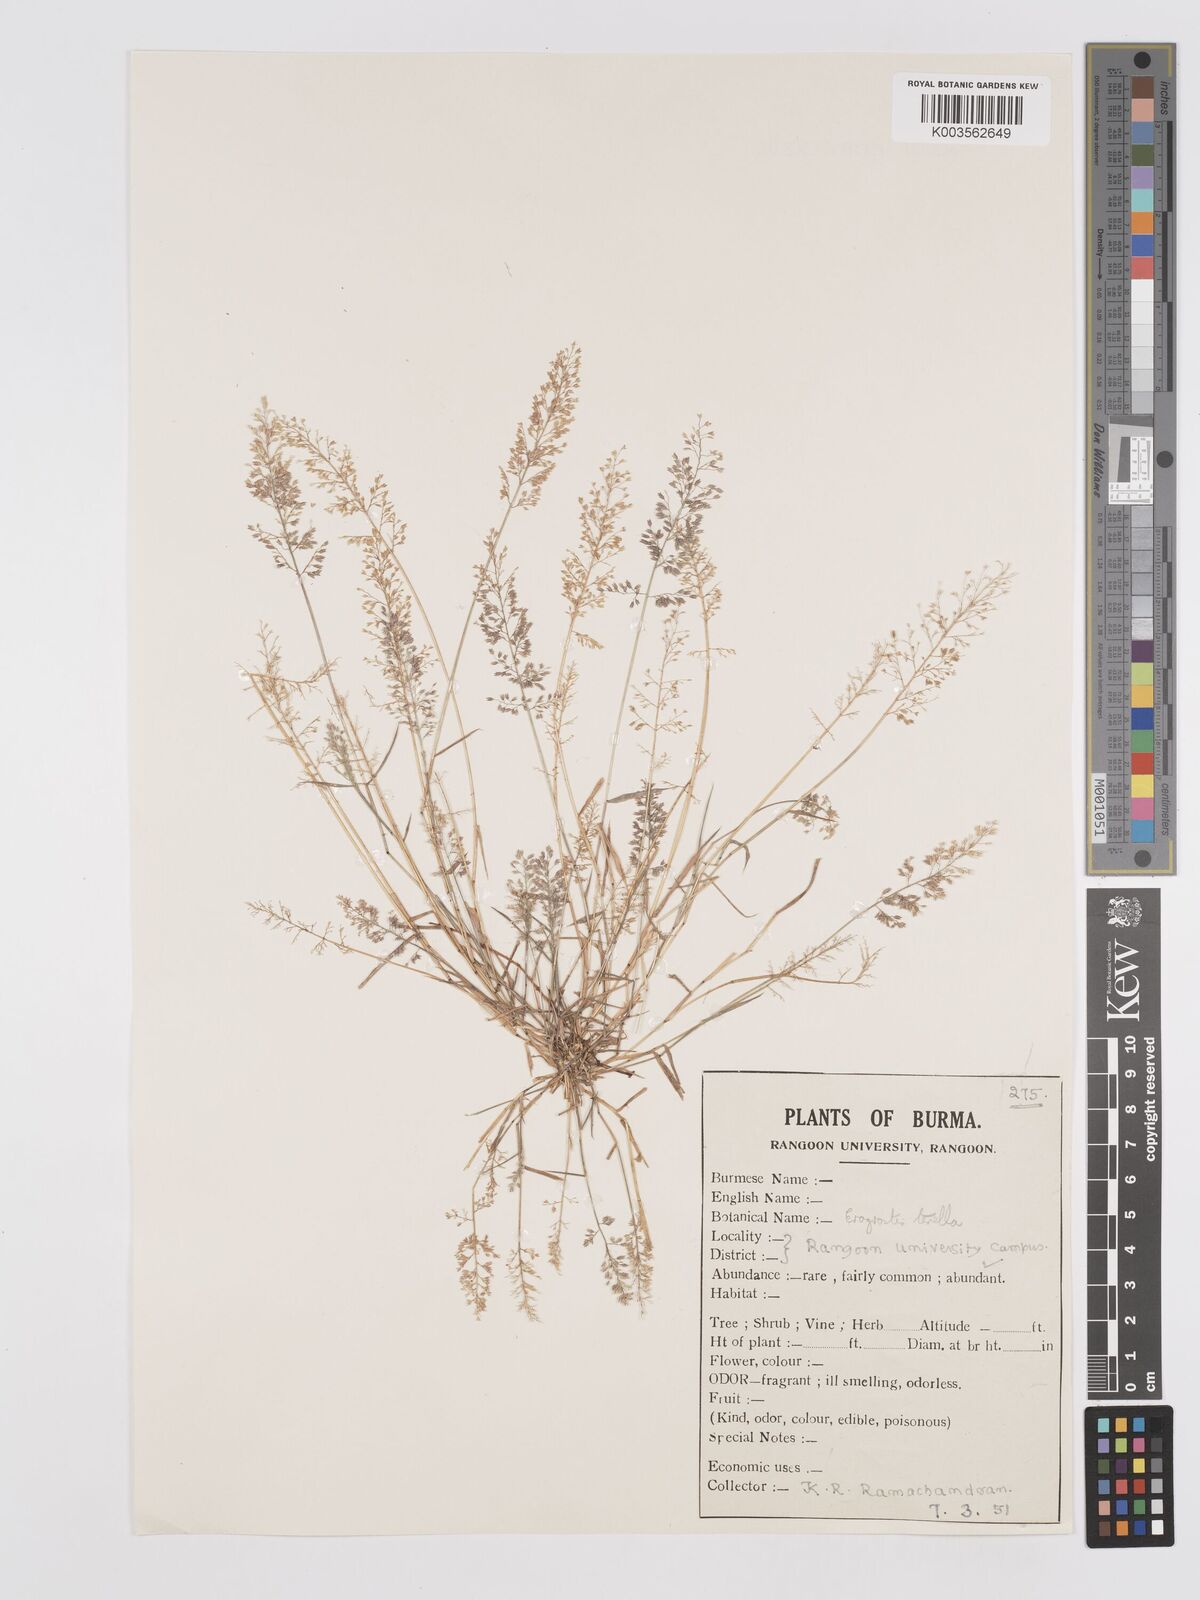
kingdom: Plantae
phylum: Tracheophyta
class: Liliopsida
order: Poales
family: Poaceae
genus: Eragrostis
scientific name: Eragrostis tenella
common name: Japanese lovegrass
